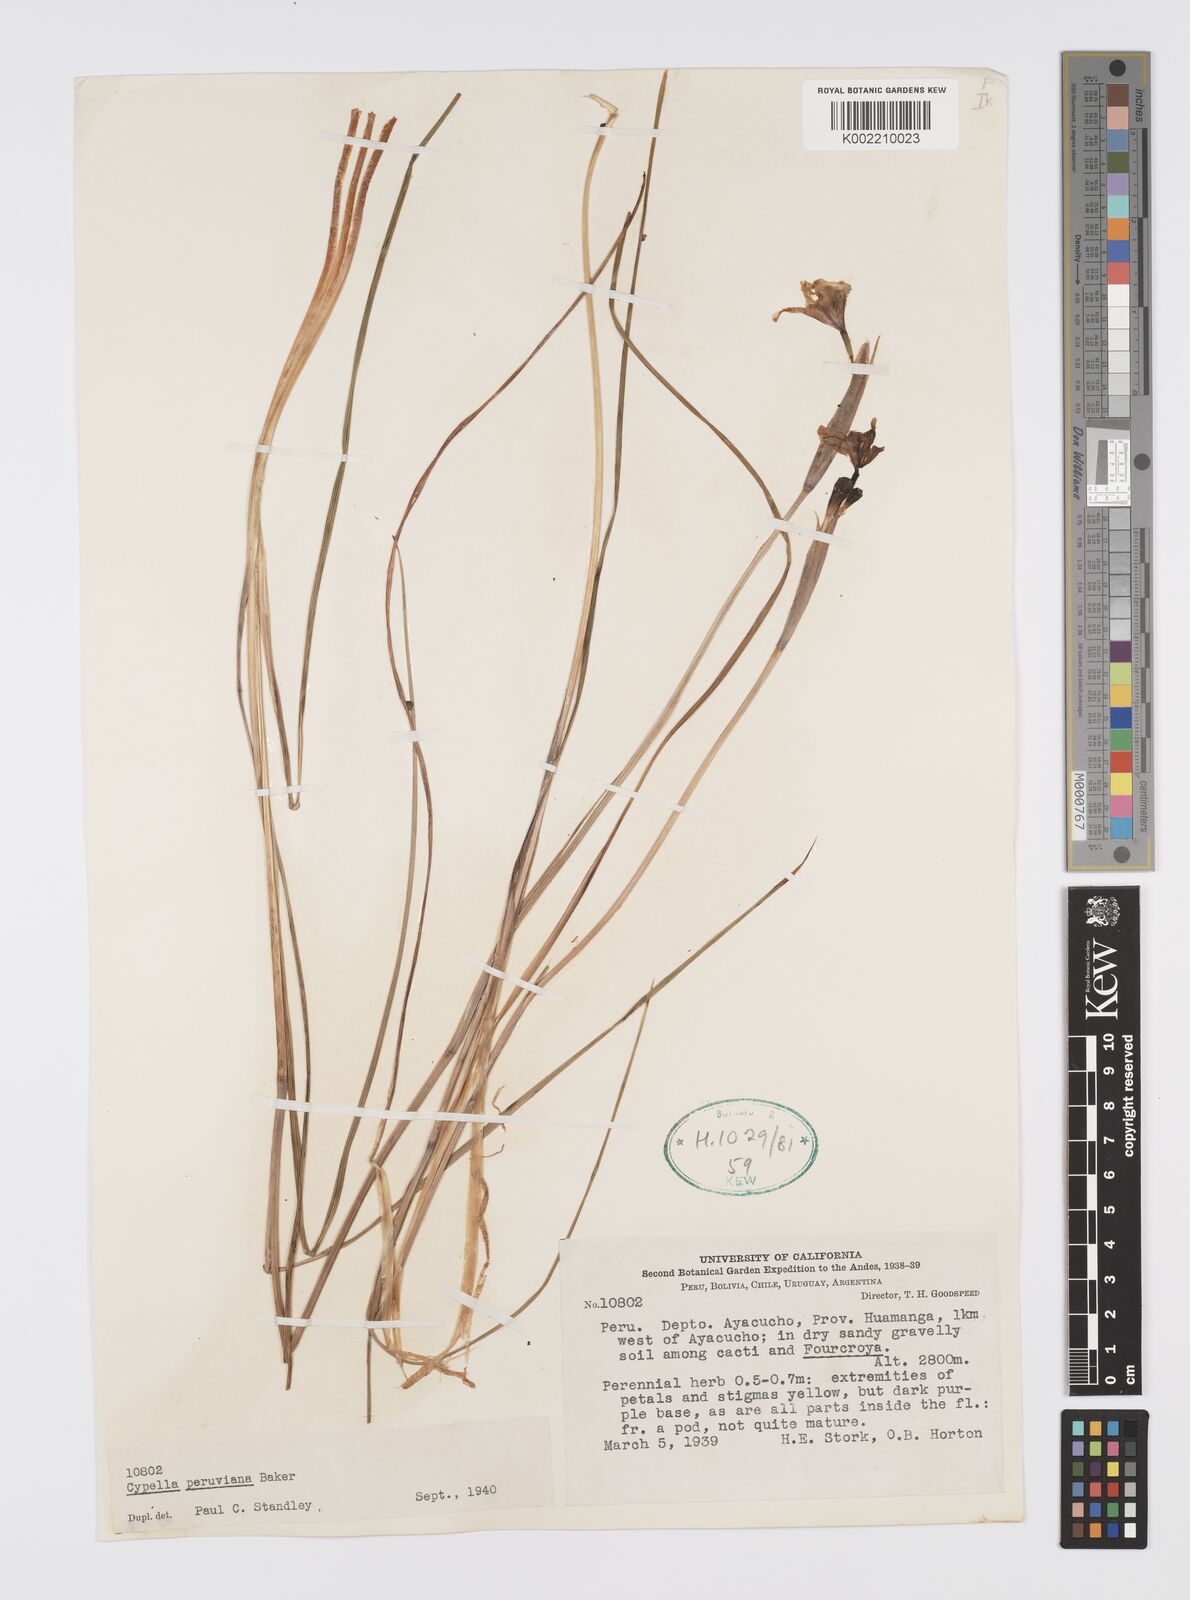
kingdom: Plantae
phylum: Tracheophyta
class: Liliopsida
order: Asparagales
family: Iridaceae
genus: Hesperoxiphion
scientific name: Hesperoxiphion peruvianum
